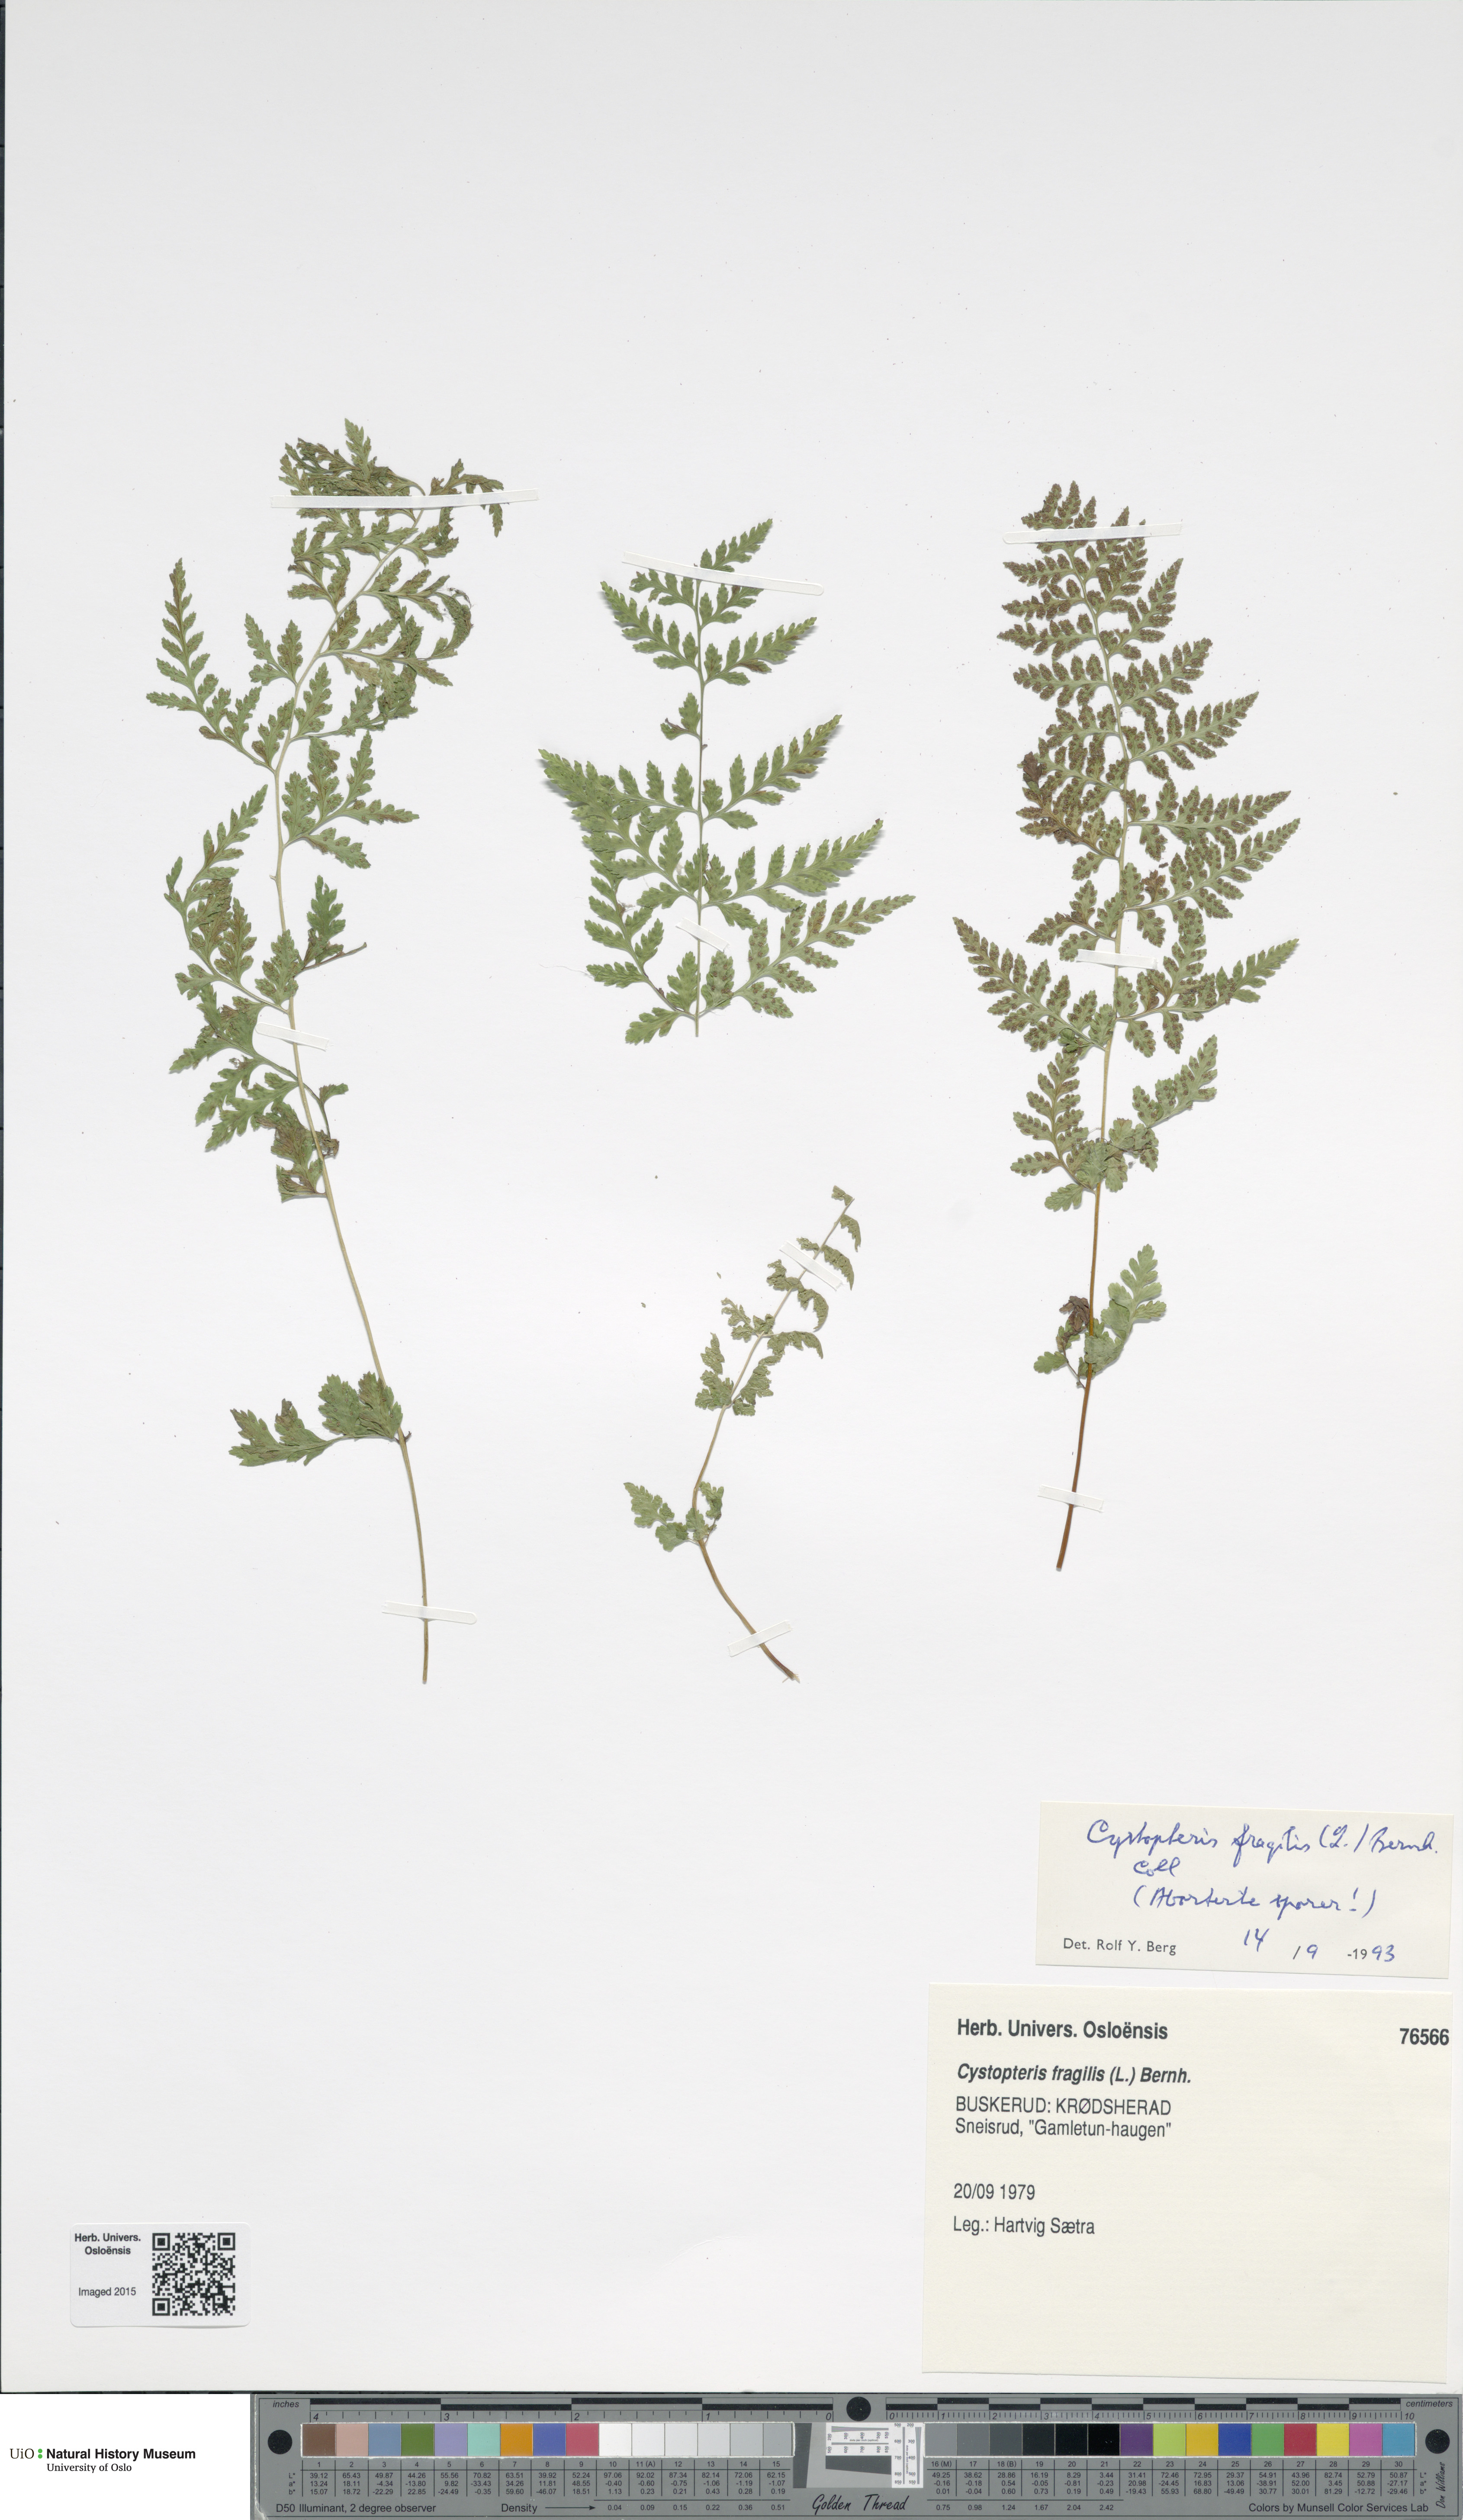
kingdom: Plantae
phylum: Tracheophyta
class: Polypodiopsida
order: Polypodiales
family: Cystopteridaceae
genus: Cystopteris
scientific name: Cystopteris fragilis
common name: Brittle bladder fern
